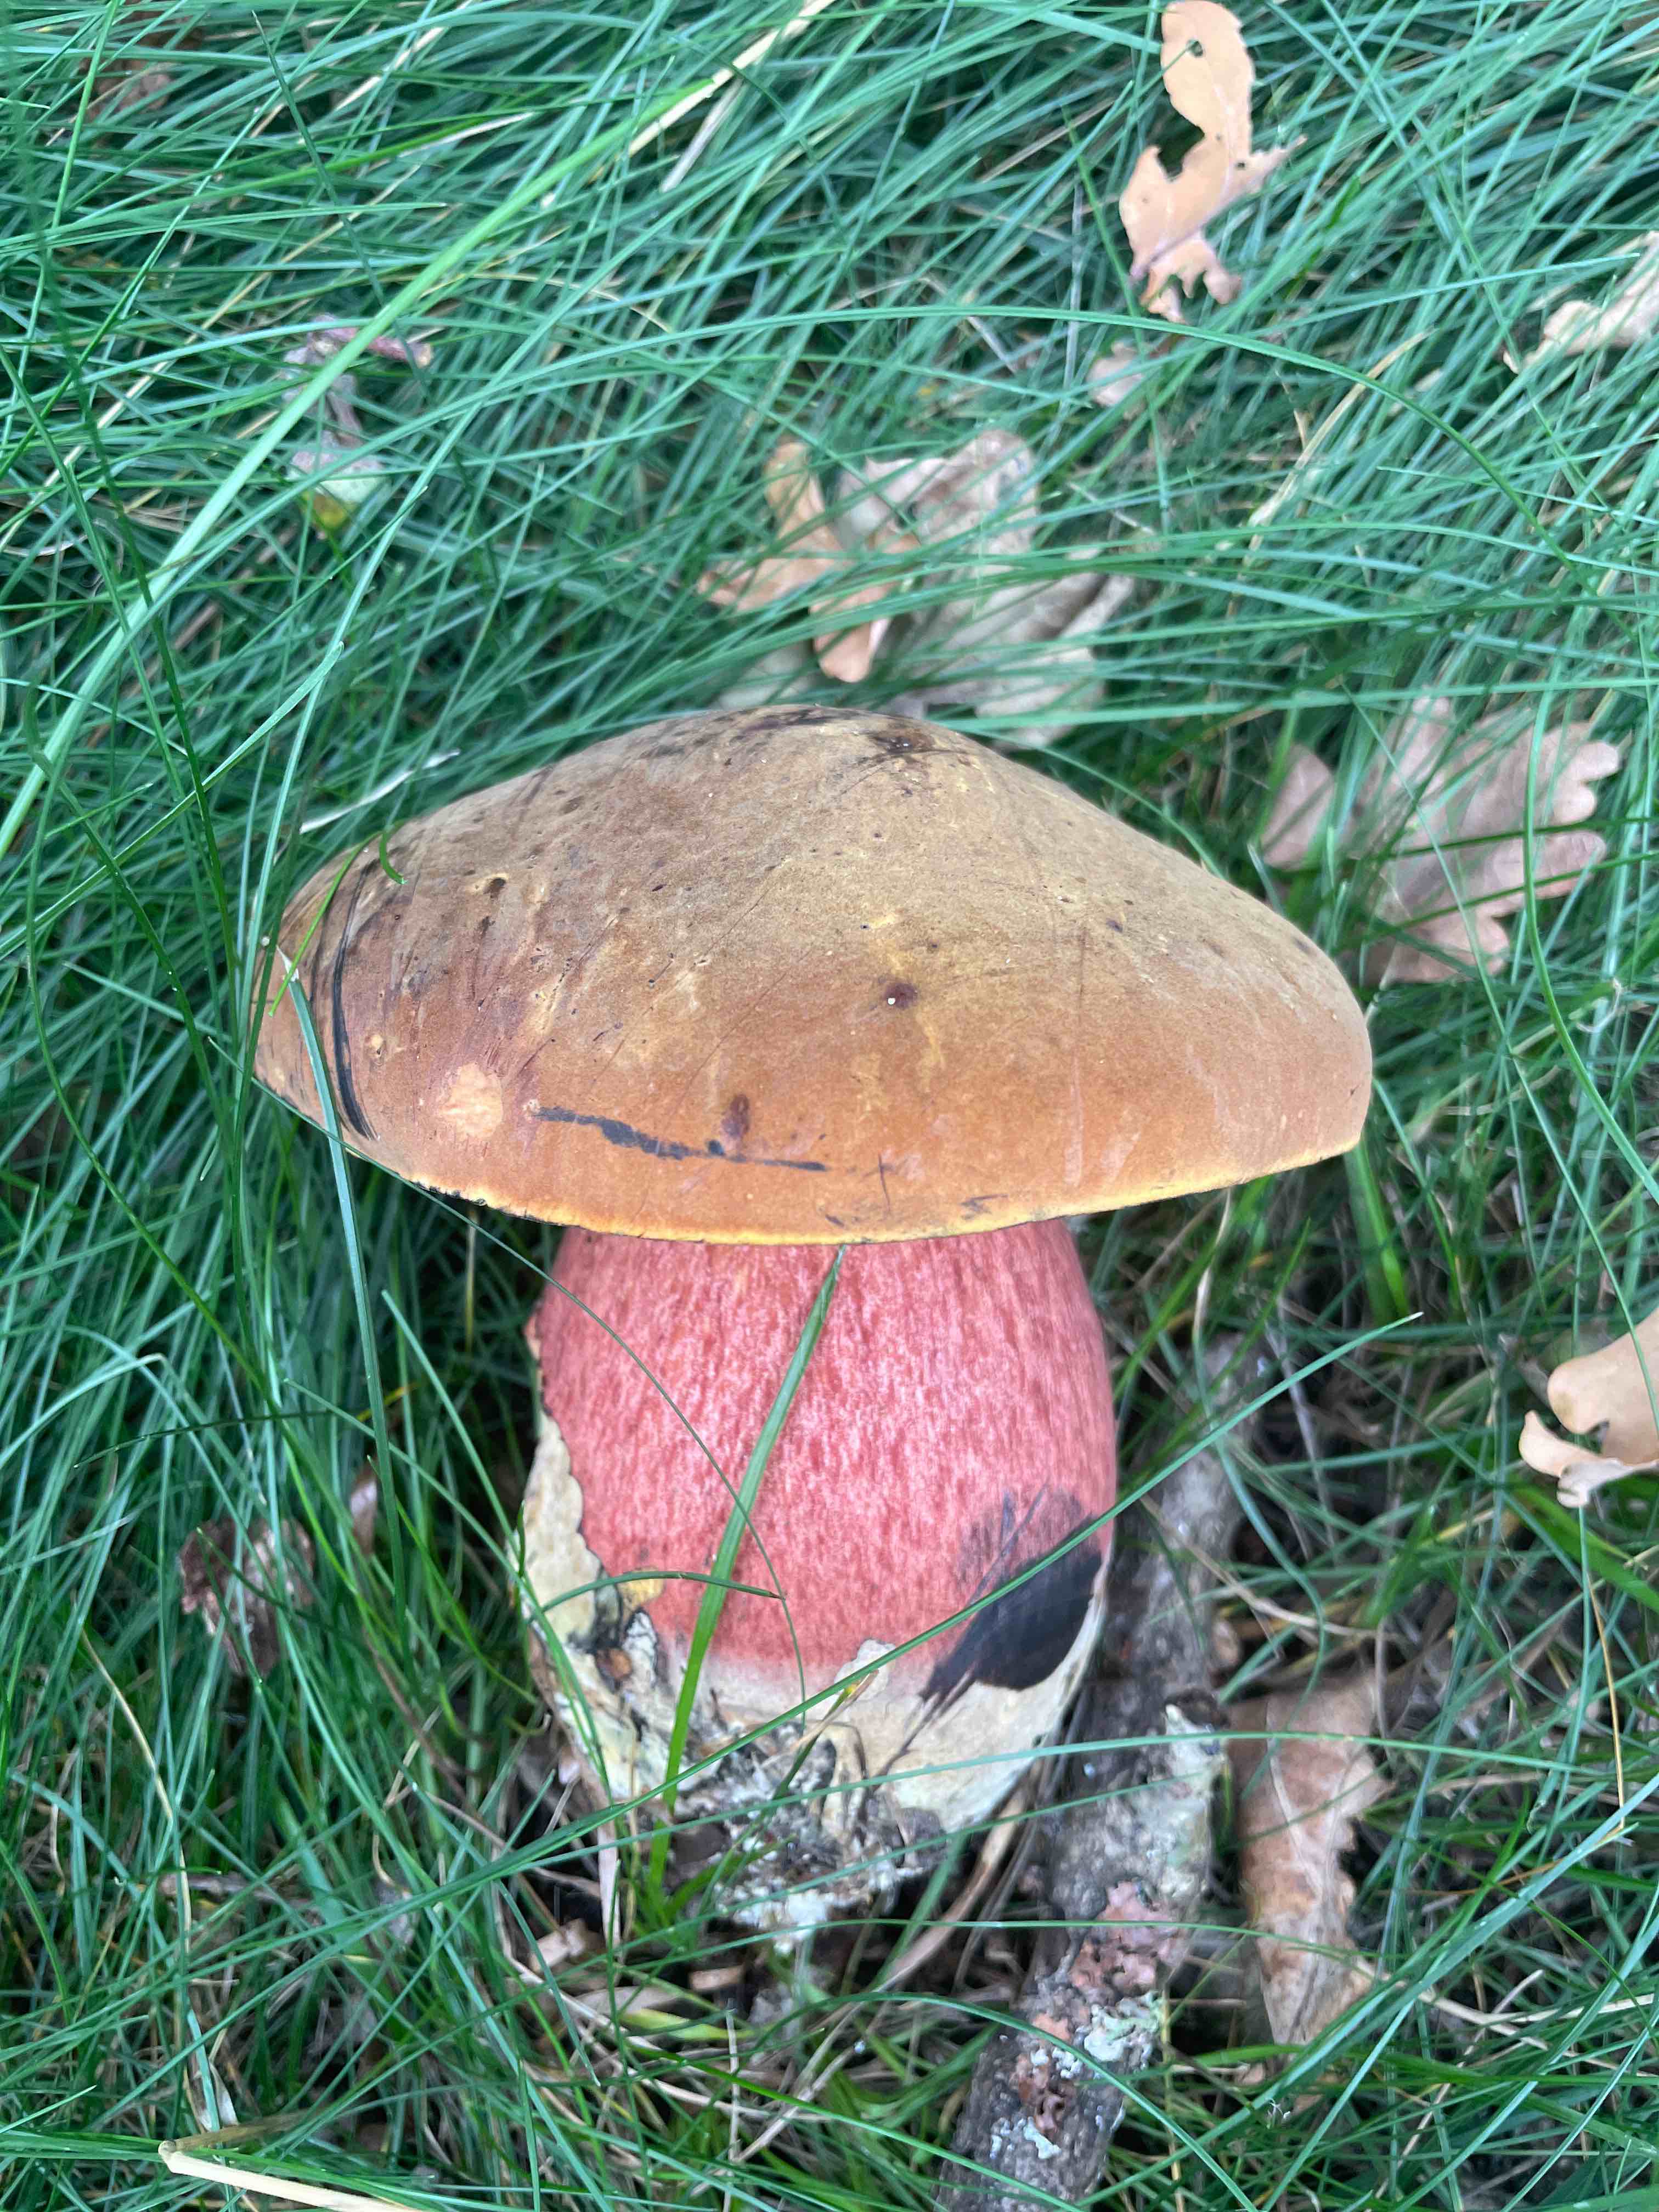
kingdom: Fungi
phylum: Basidiomycota
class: Agaricomycetes
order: Boletales
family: Boletaceae
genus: Neoboletus
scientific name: Neoboletus erythropus
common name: punktstokket indigorørhat
